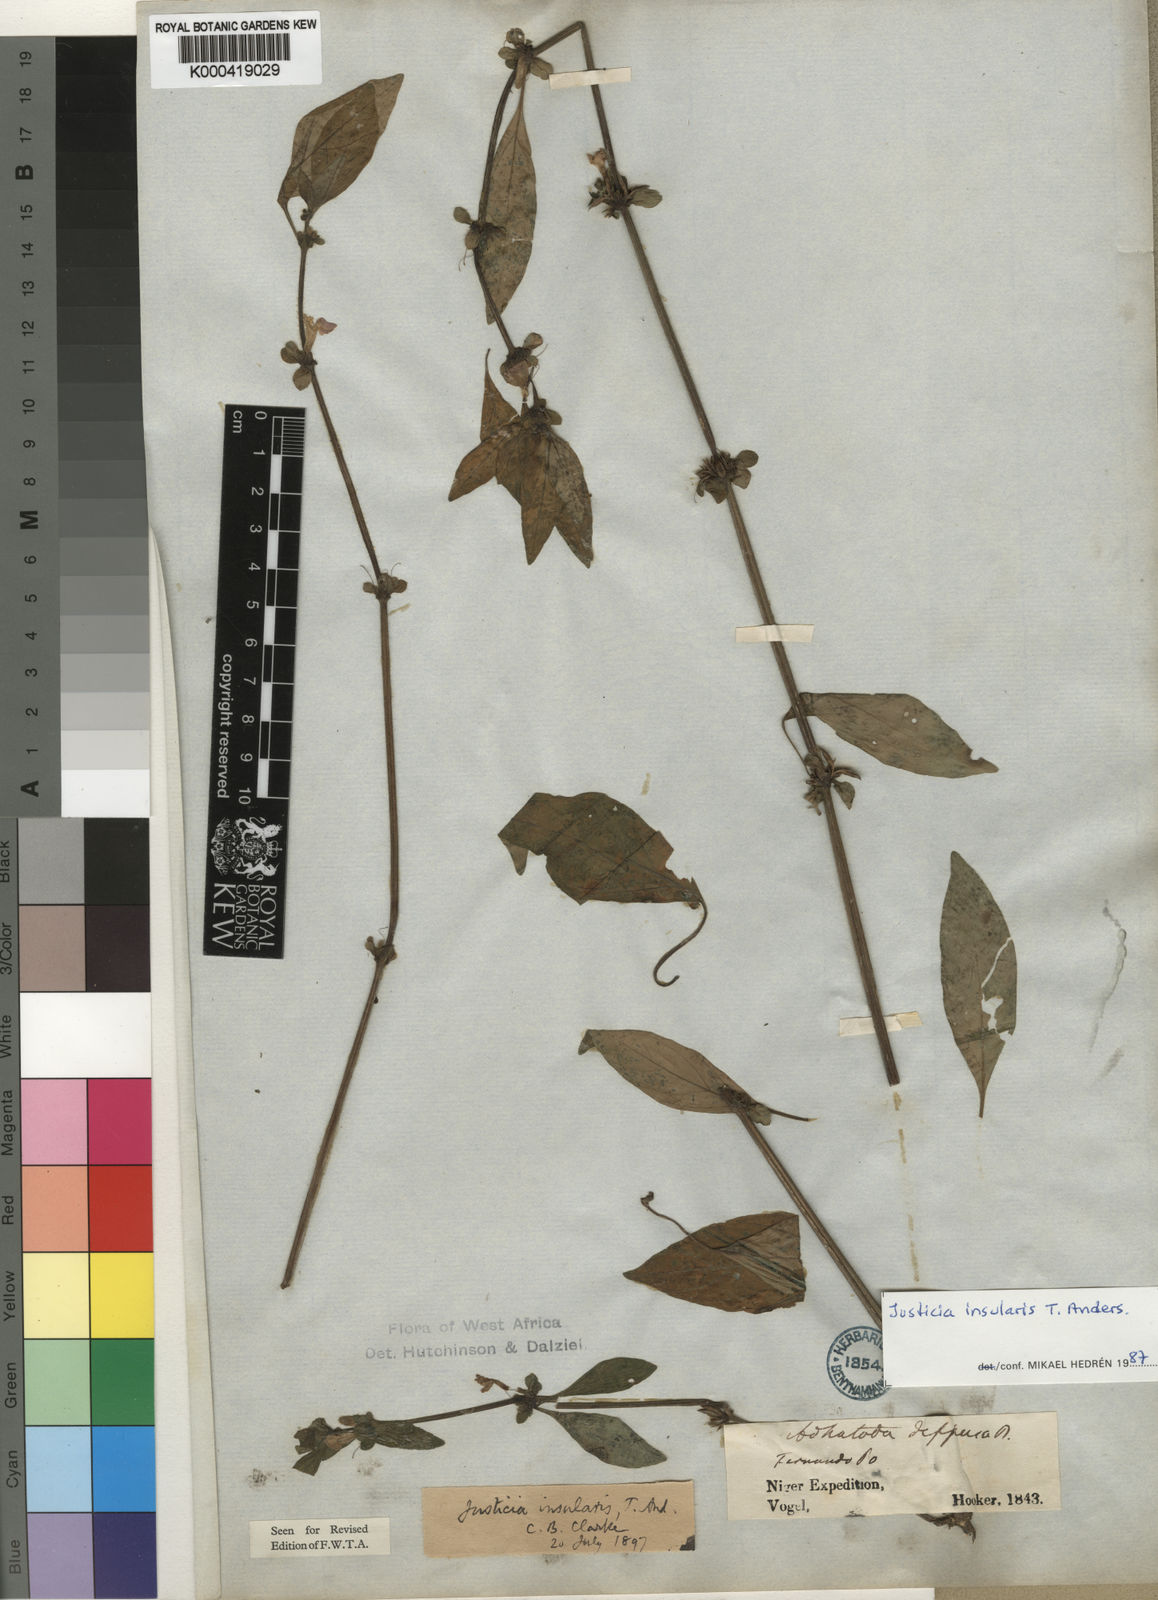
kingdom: Plantae
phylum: Tracheophyta
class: Magnoliopsida
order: Lamiales
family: Acanthaceae
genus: Justicia
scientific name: Justicia insularis
